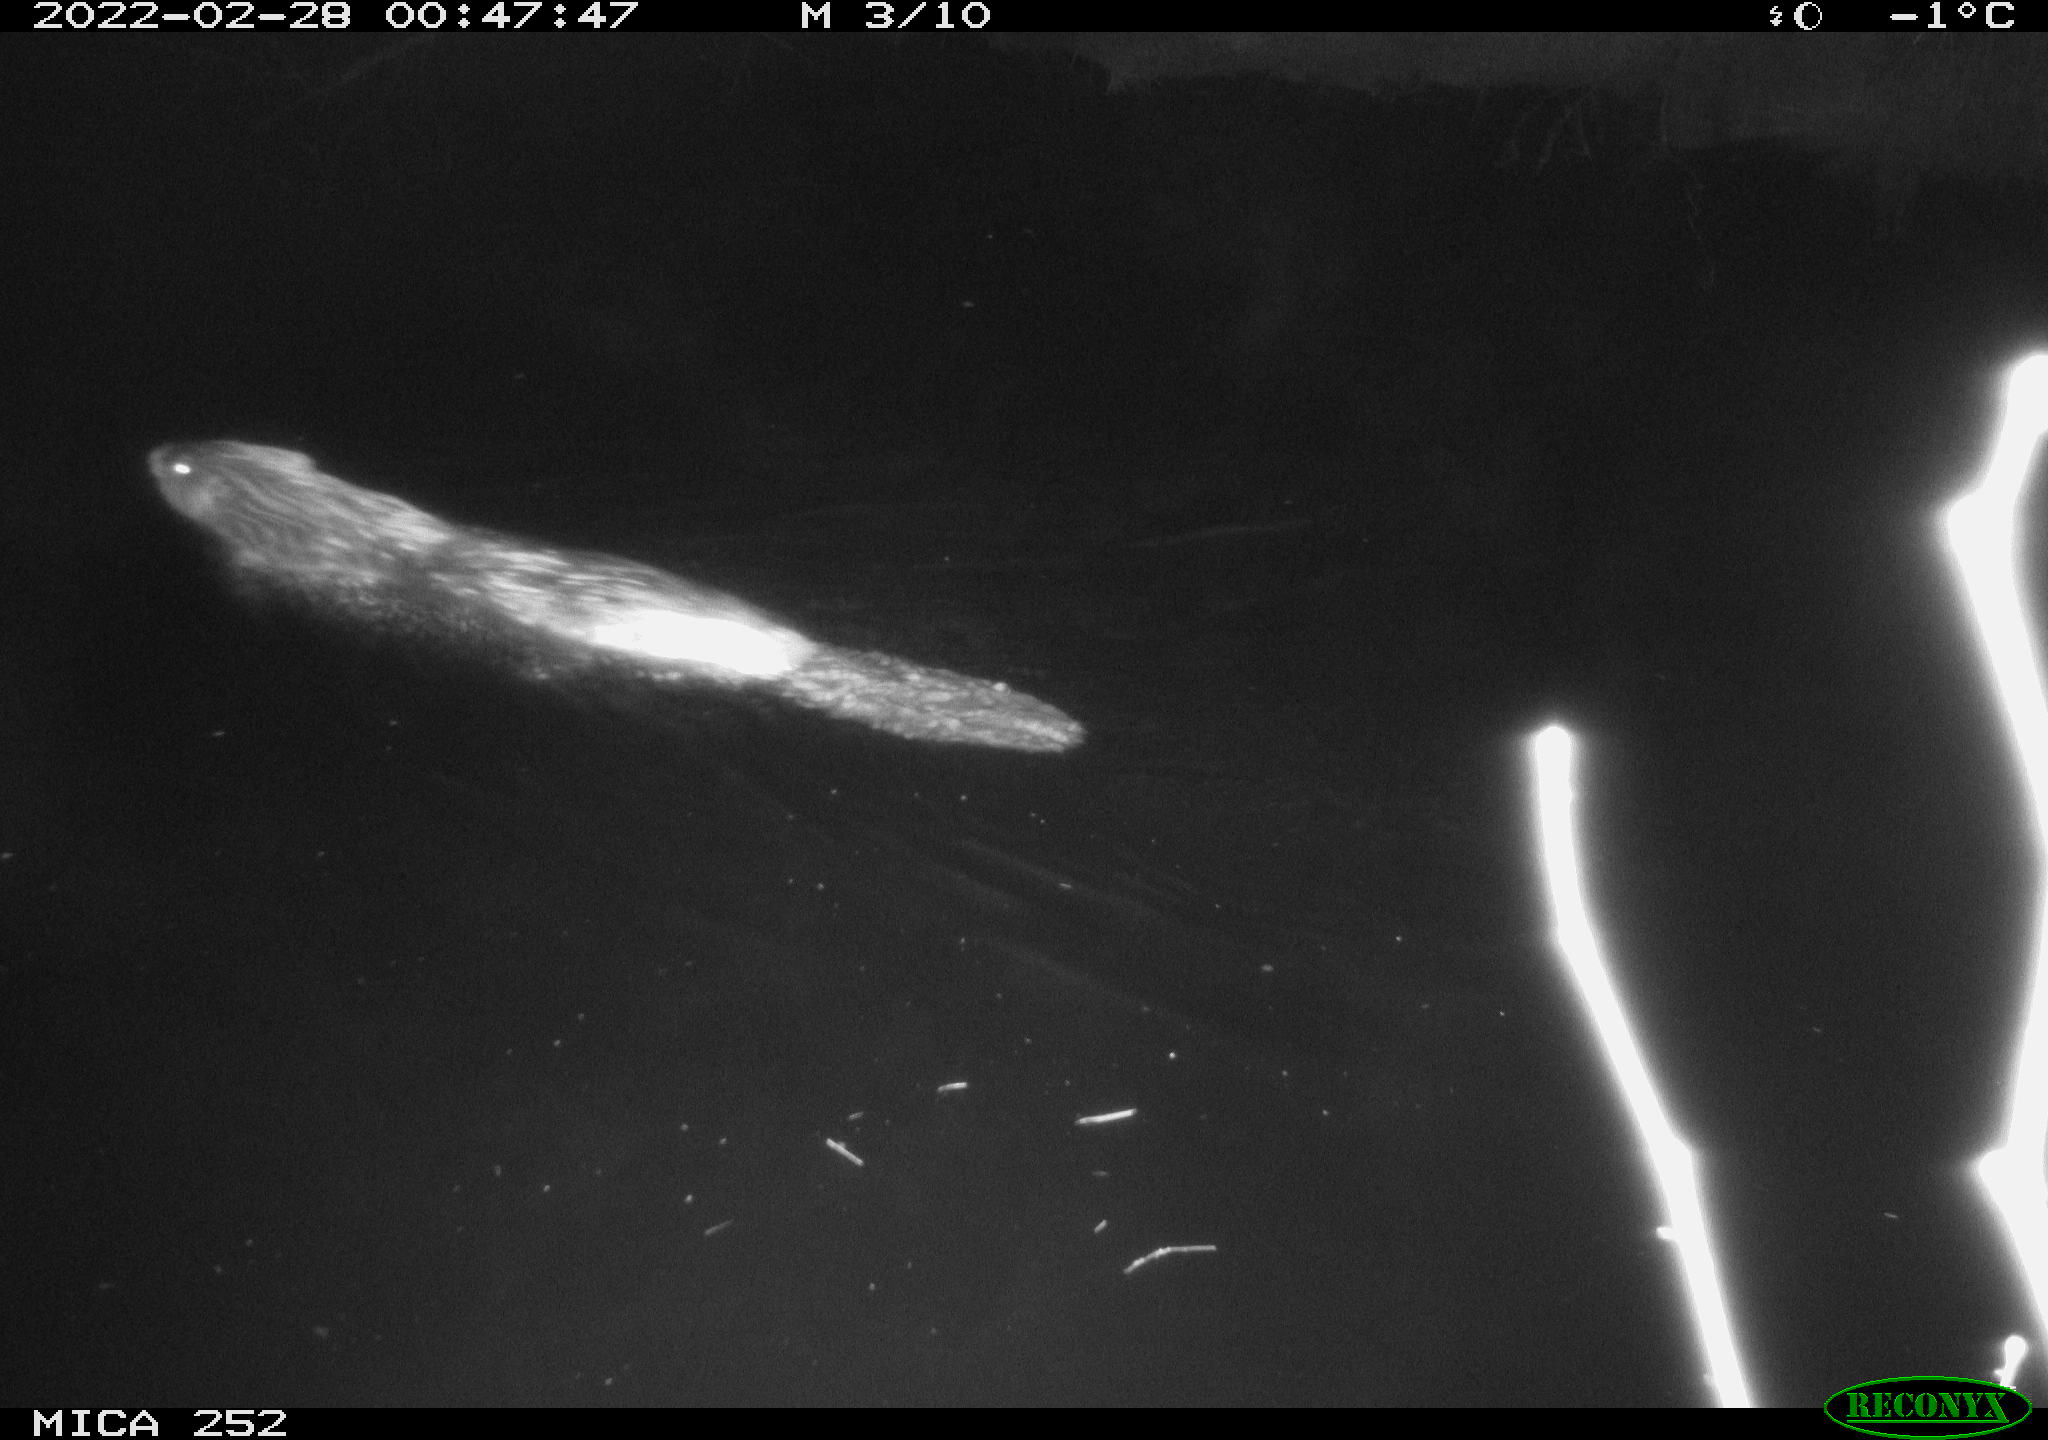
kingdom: Animalia
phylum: Chordata
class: Mammalia
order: Rodentia
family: Castoridae
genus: Castor
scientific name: Castor fiber
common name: Eurasian beaver
